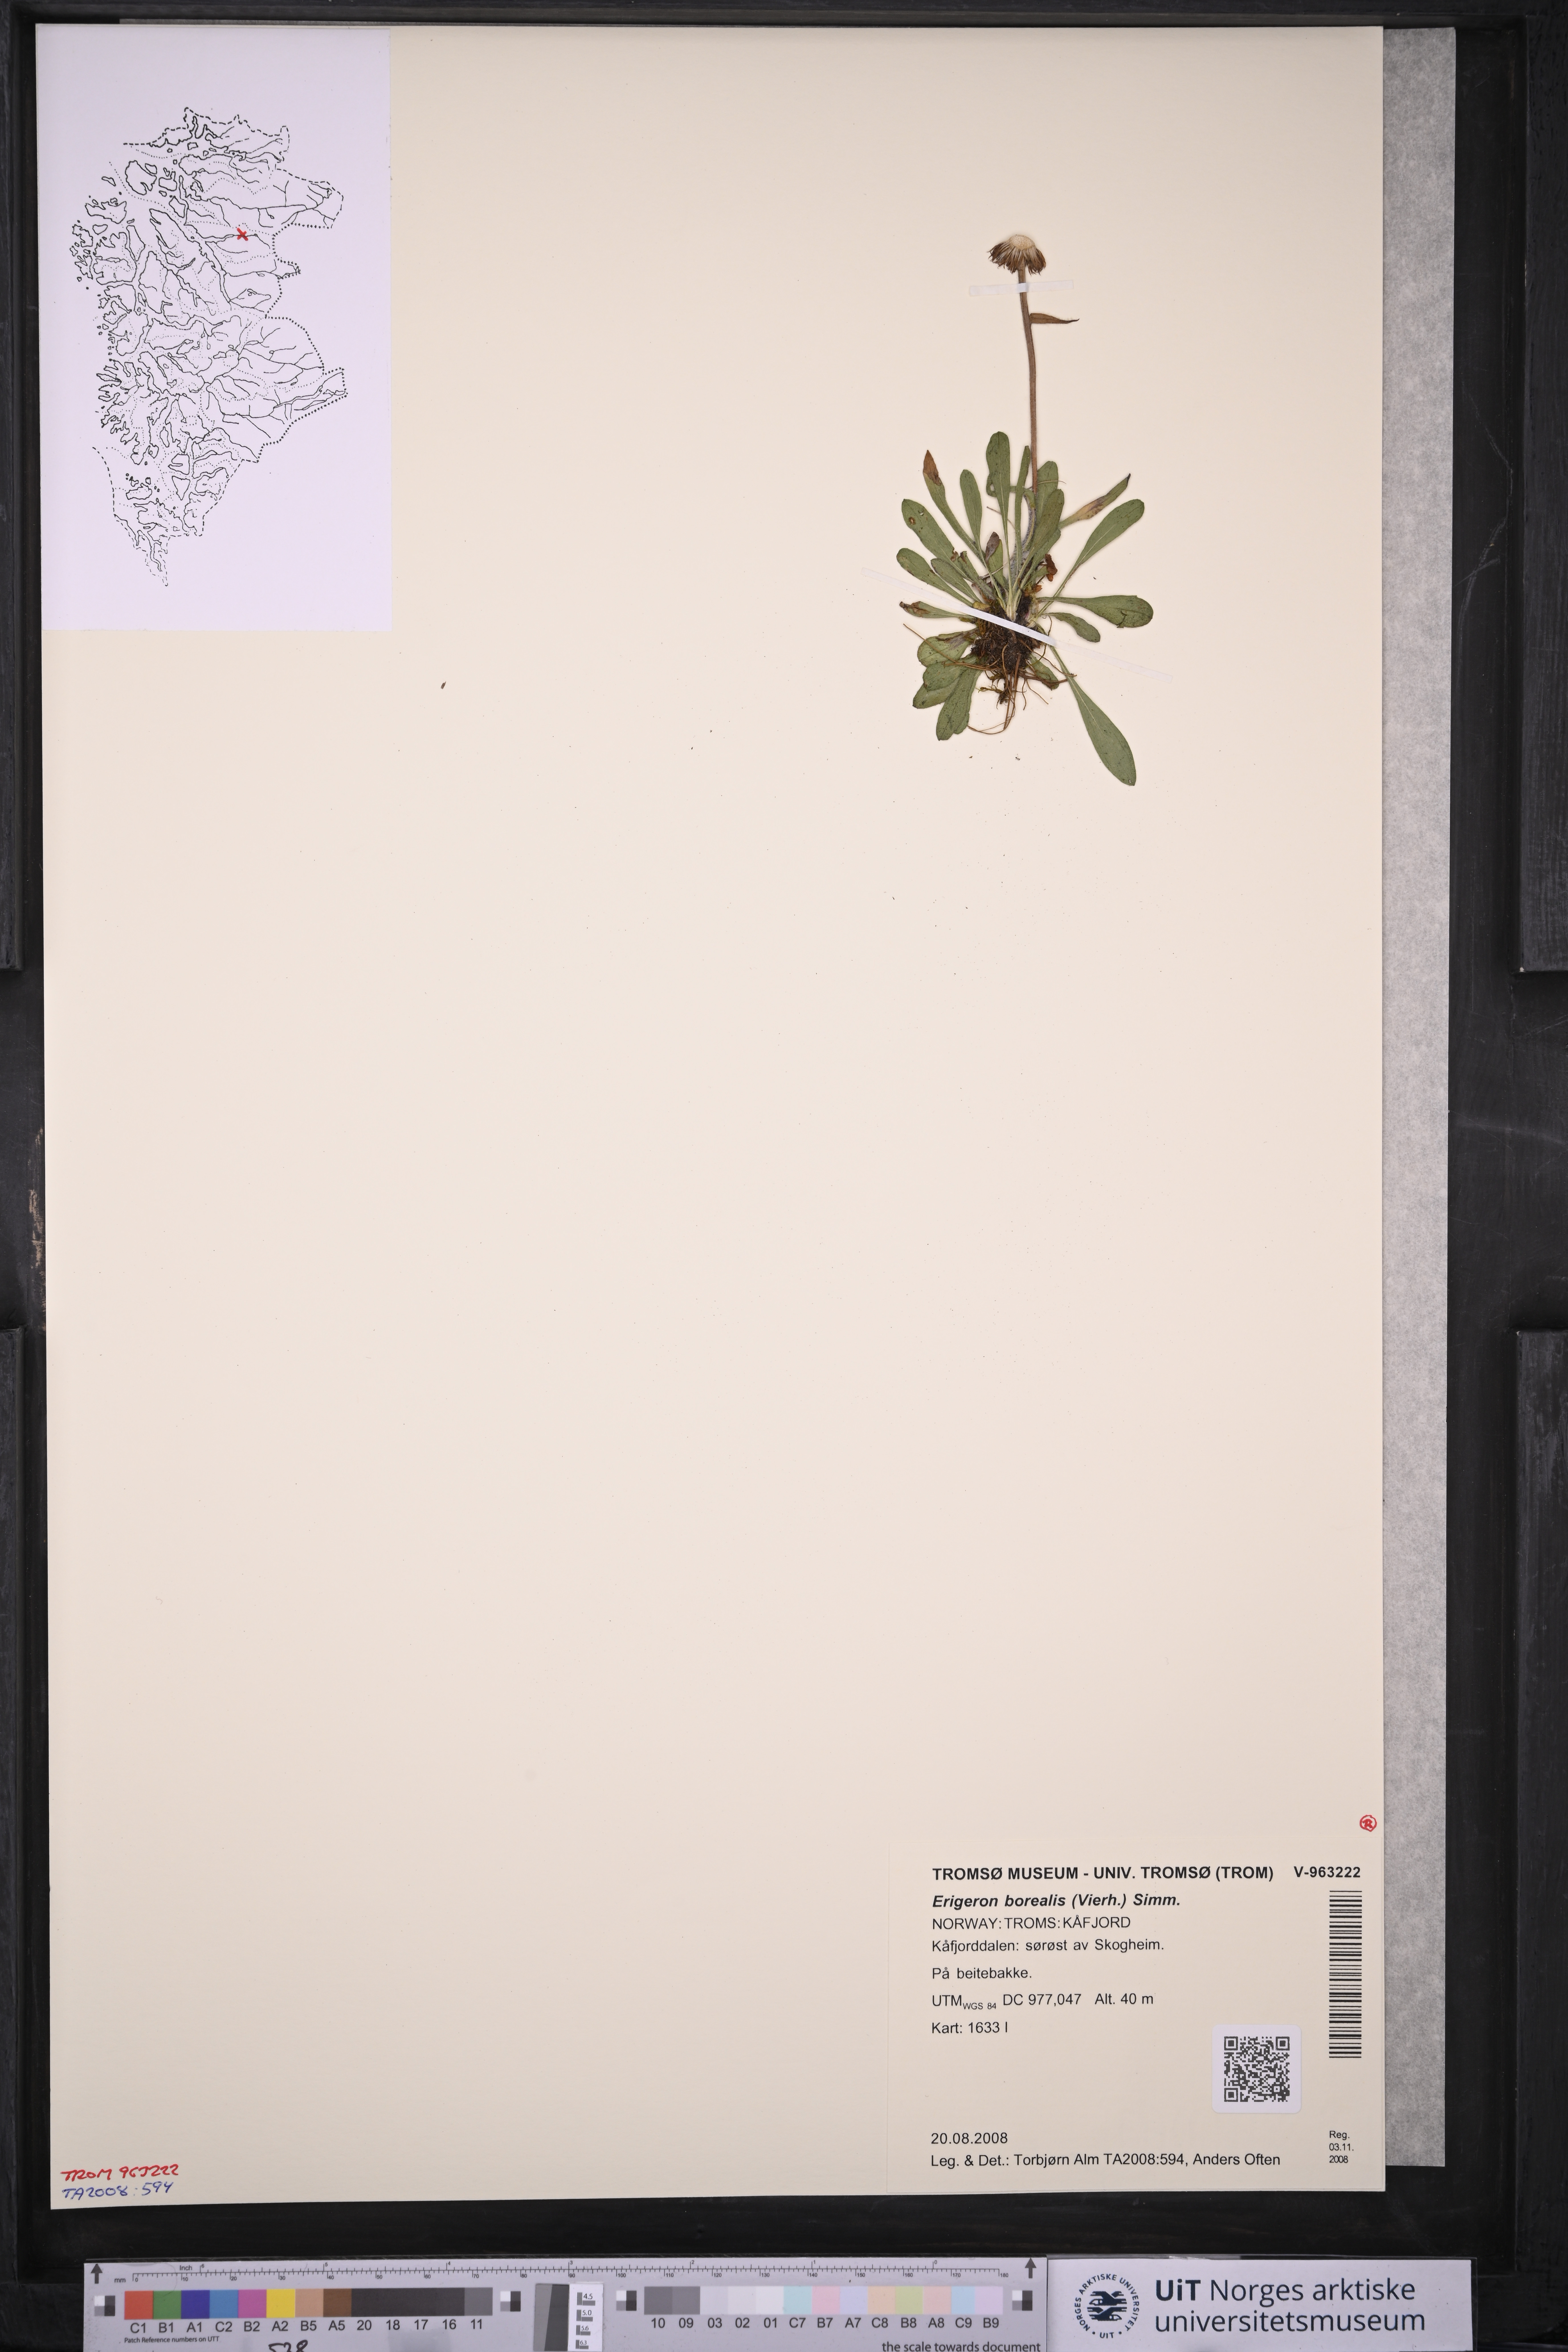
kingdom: Plantae
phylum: Tracheophyta
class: Magnoliopsida
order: Asterales
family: Asteraceae
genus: Erigeron
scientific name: Erigeron borealis
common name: Alpine fleabane
